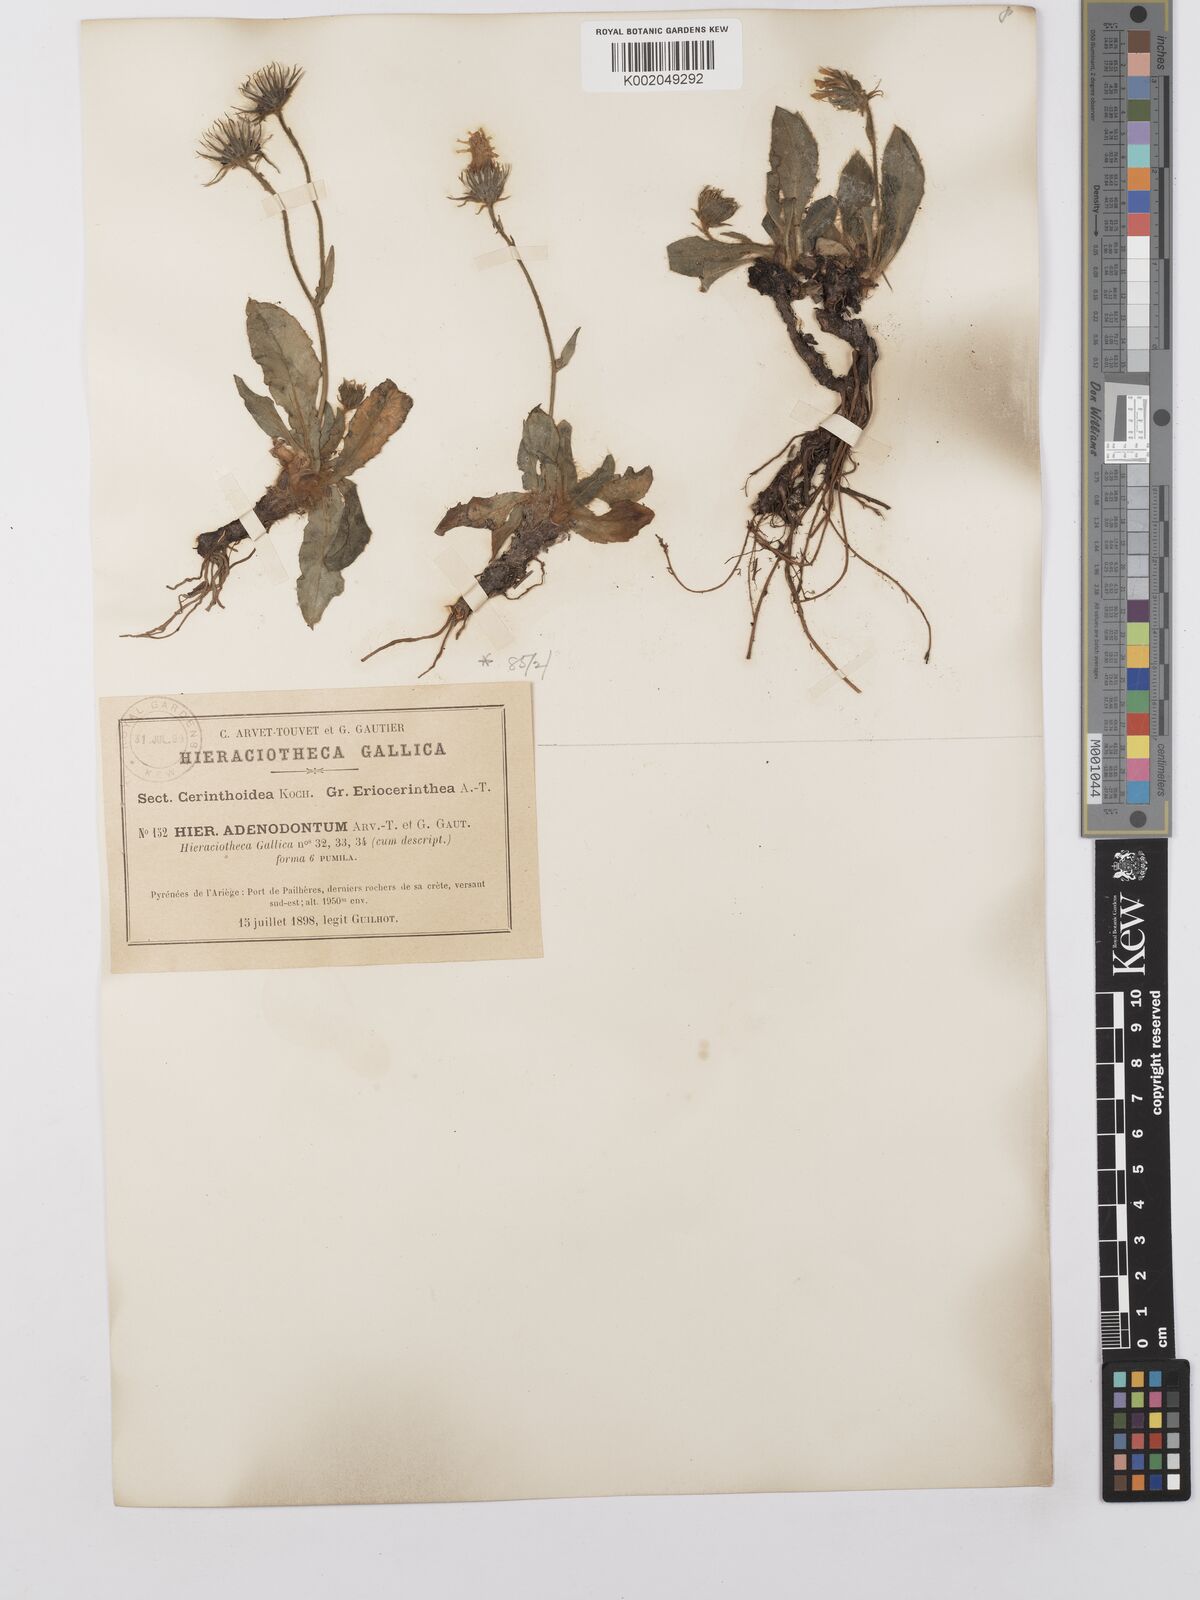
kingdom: Plantae
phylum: Tracheophyta
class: Magnoliopsida
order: Asterales
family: Asteraceae
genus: Hieracium
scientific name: Hieracium
